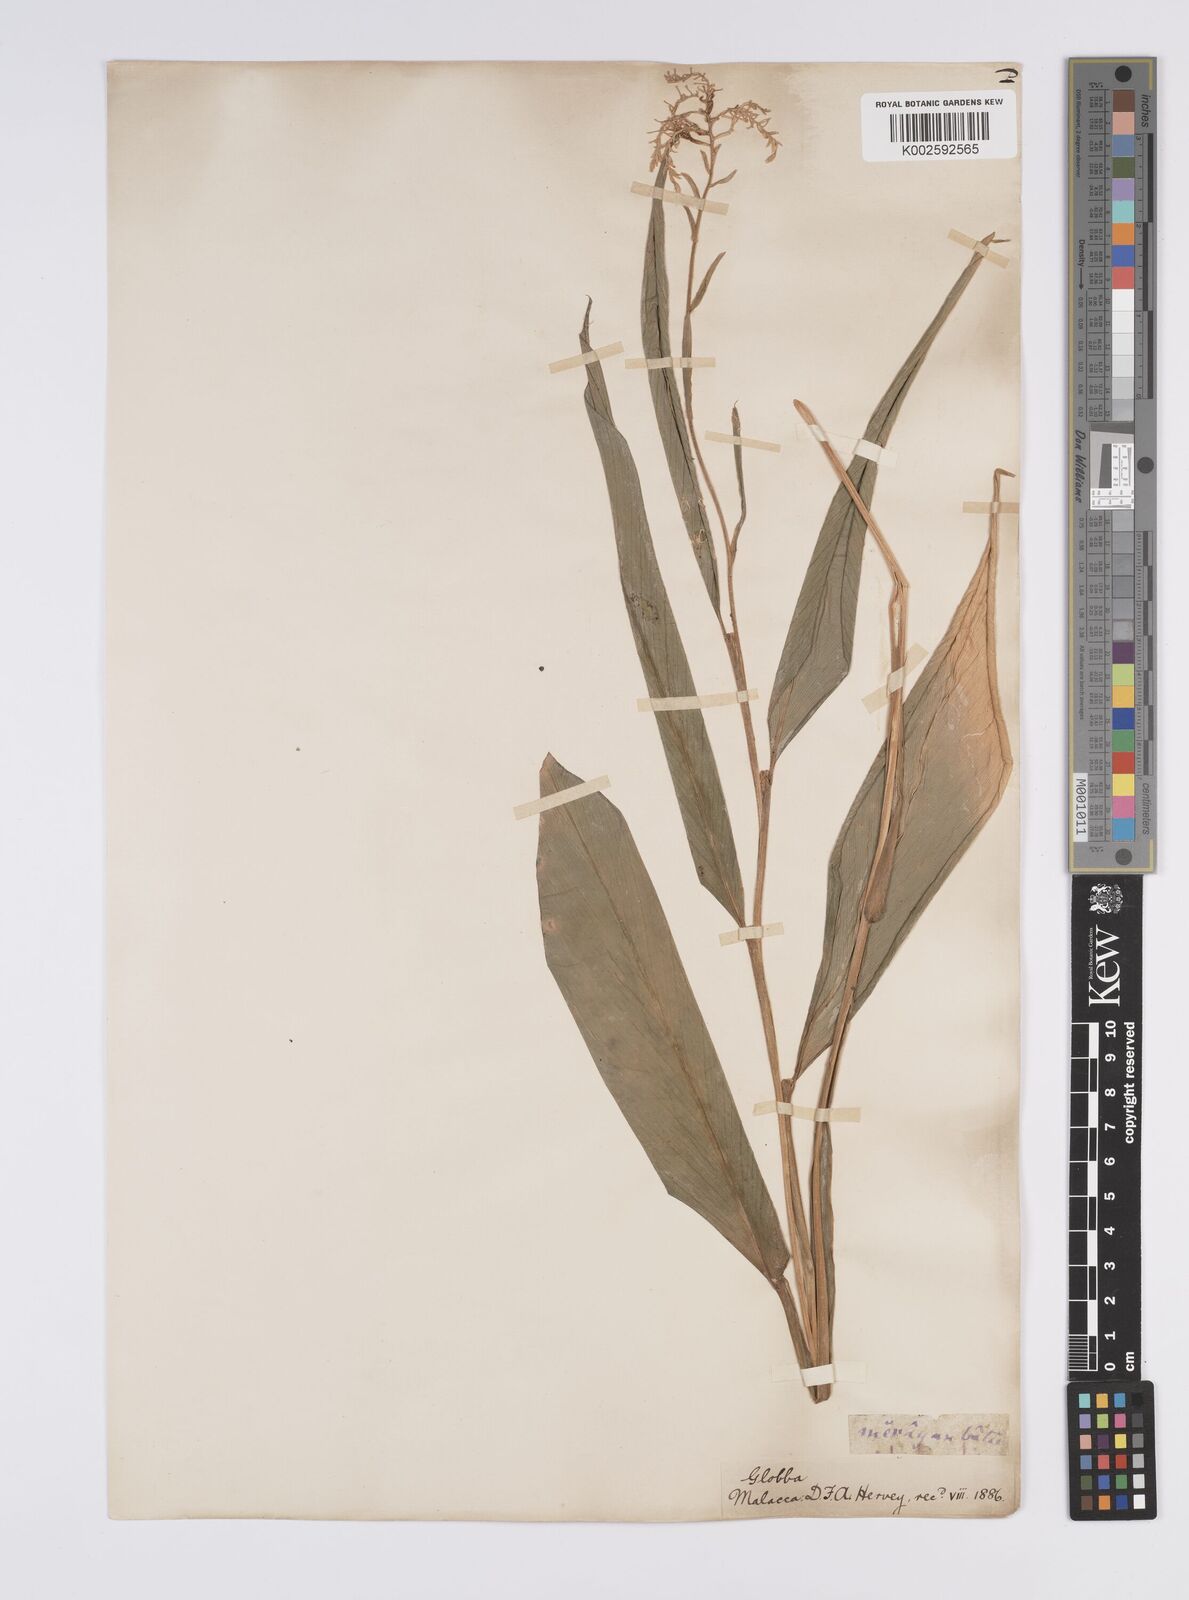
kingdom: Plantae
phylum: Tracheophyta
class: Liliopsida
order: Zingiberales
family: Zingiberaceae
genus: Globba
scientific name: Globba variabilis
